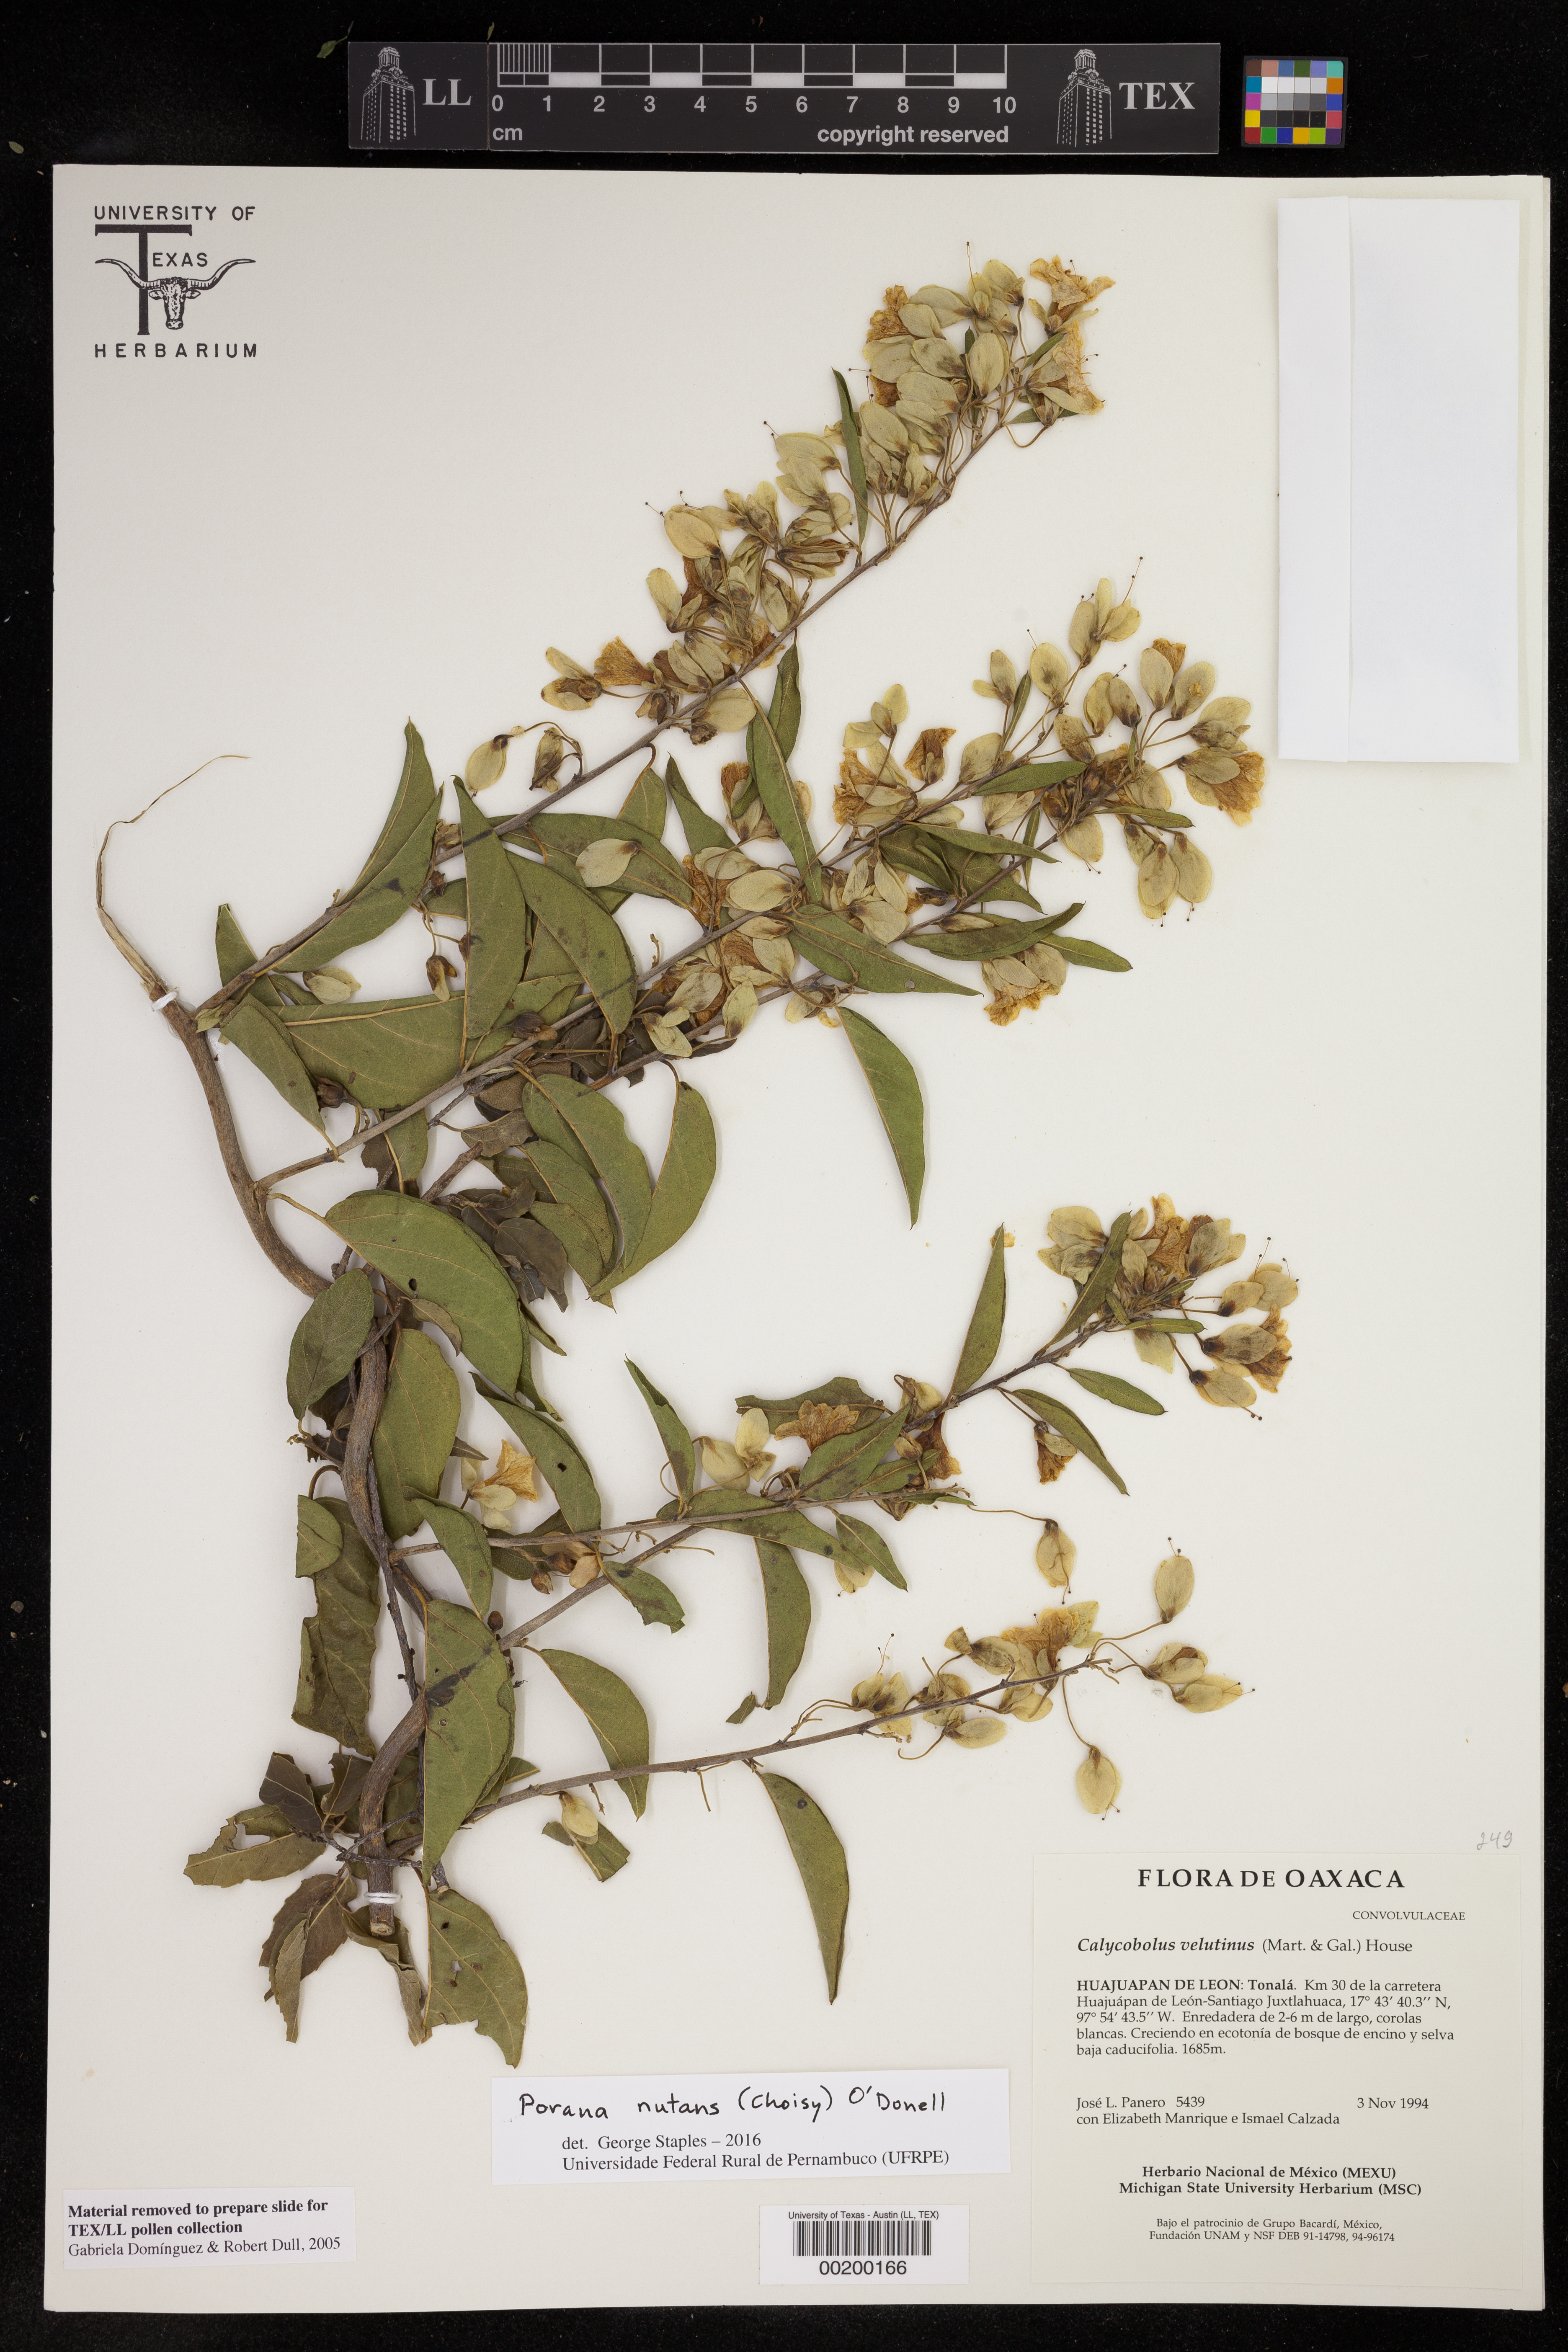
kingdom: Plantae
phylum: Tracheophyta
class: Magnoliopsida
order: Solanales
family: Convolvulaceae
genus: Operculina
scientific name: Operculina
